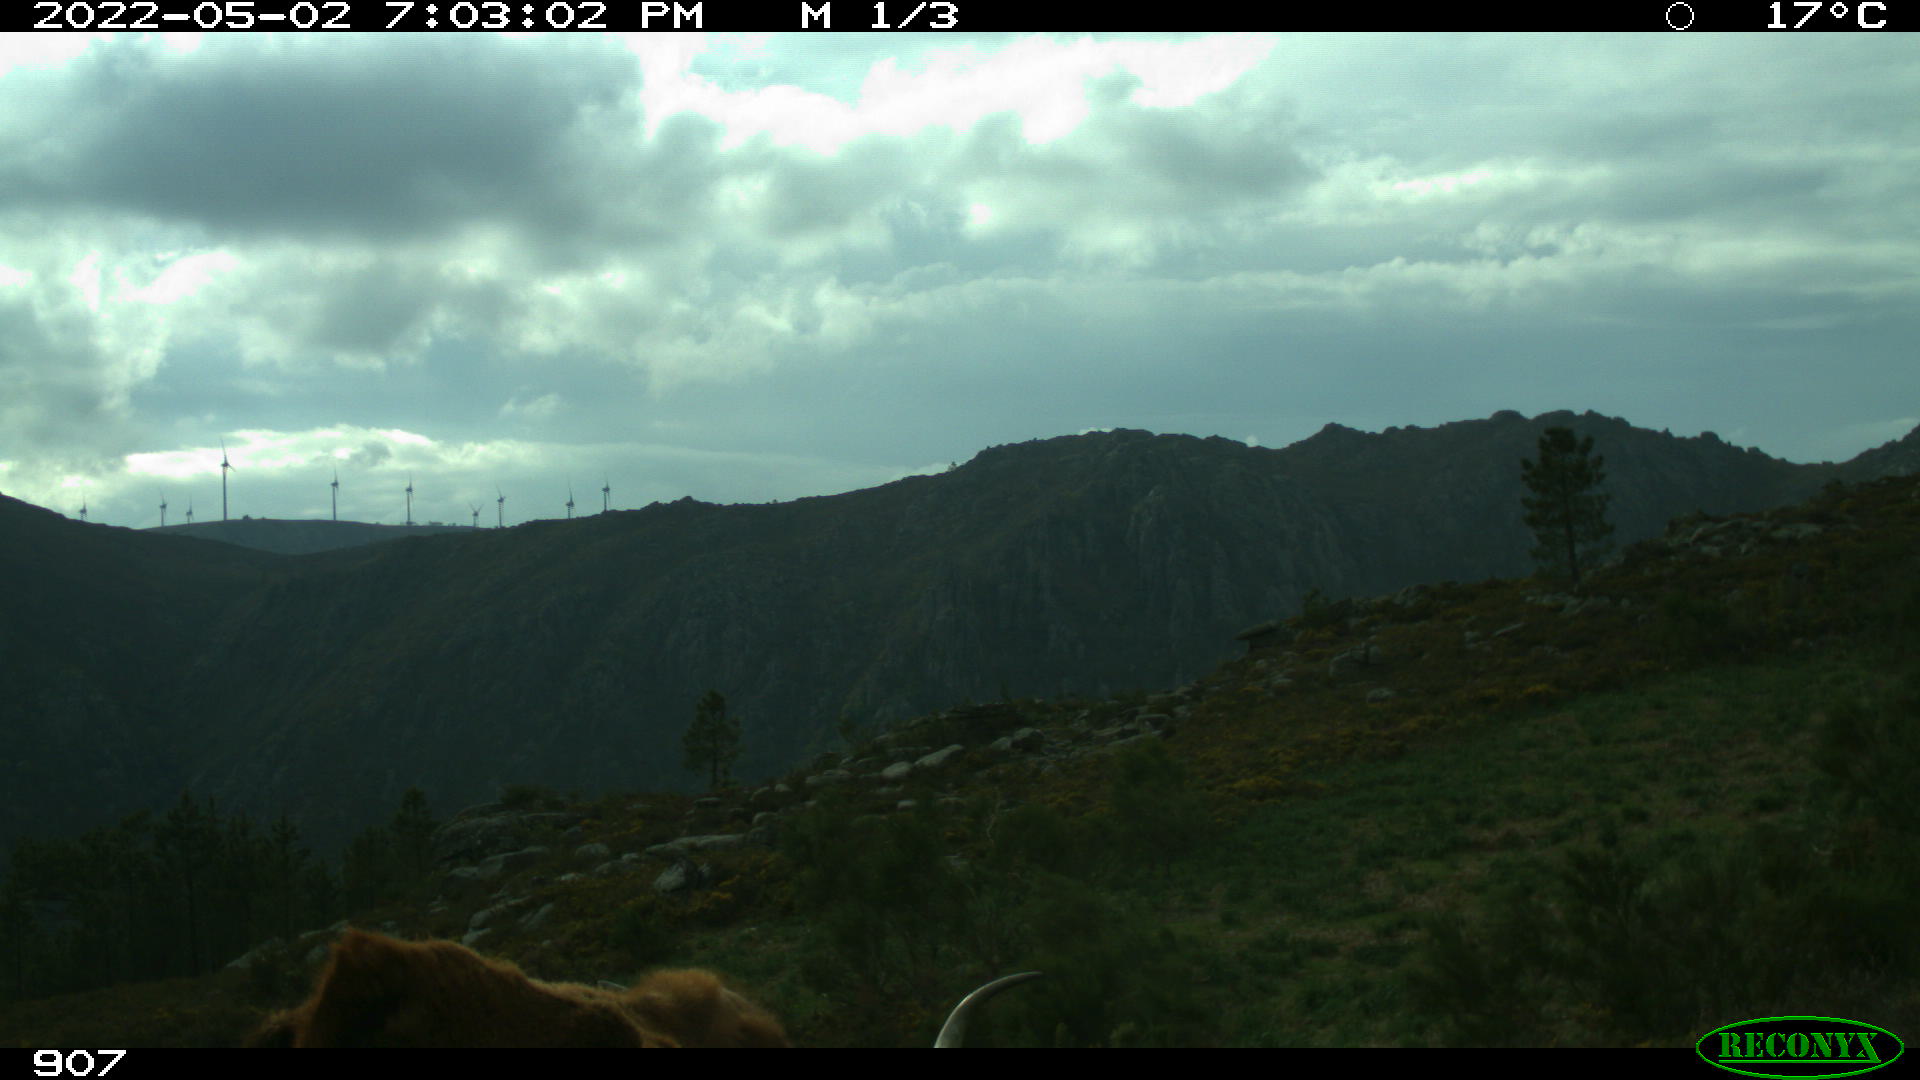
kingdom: Animalia
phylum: Chordata
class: Mammalia
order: Artiodactyla
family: Bovidae
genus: Bos
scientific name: Bos taurus
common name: Domesticated cattle
